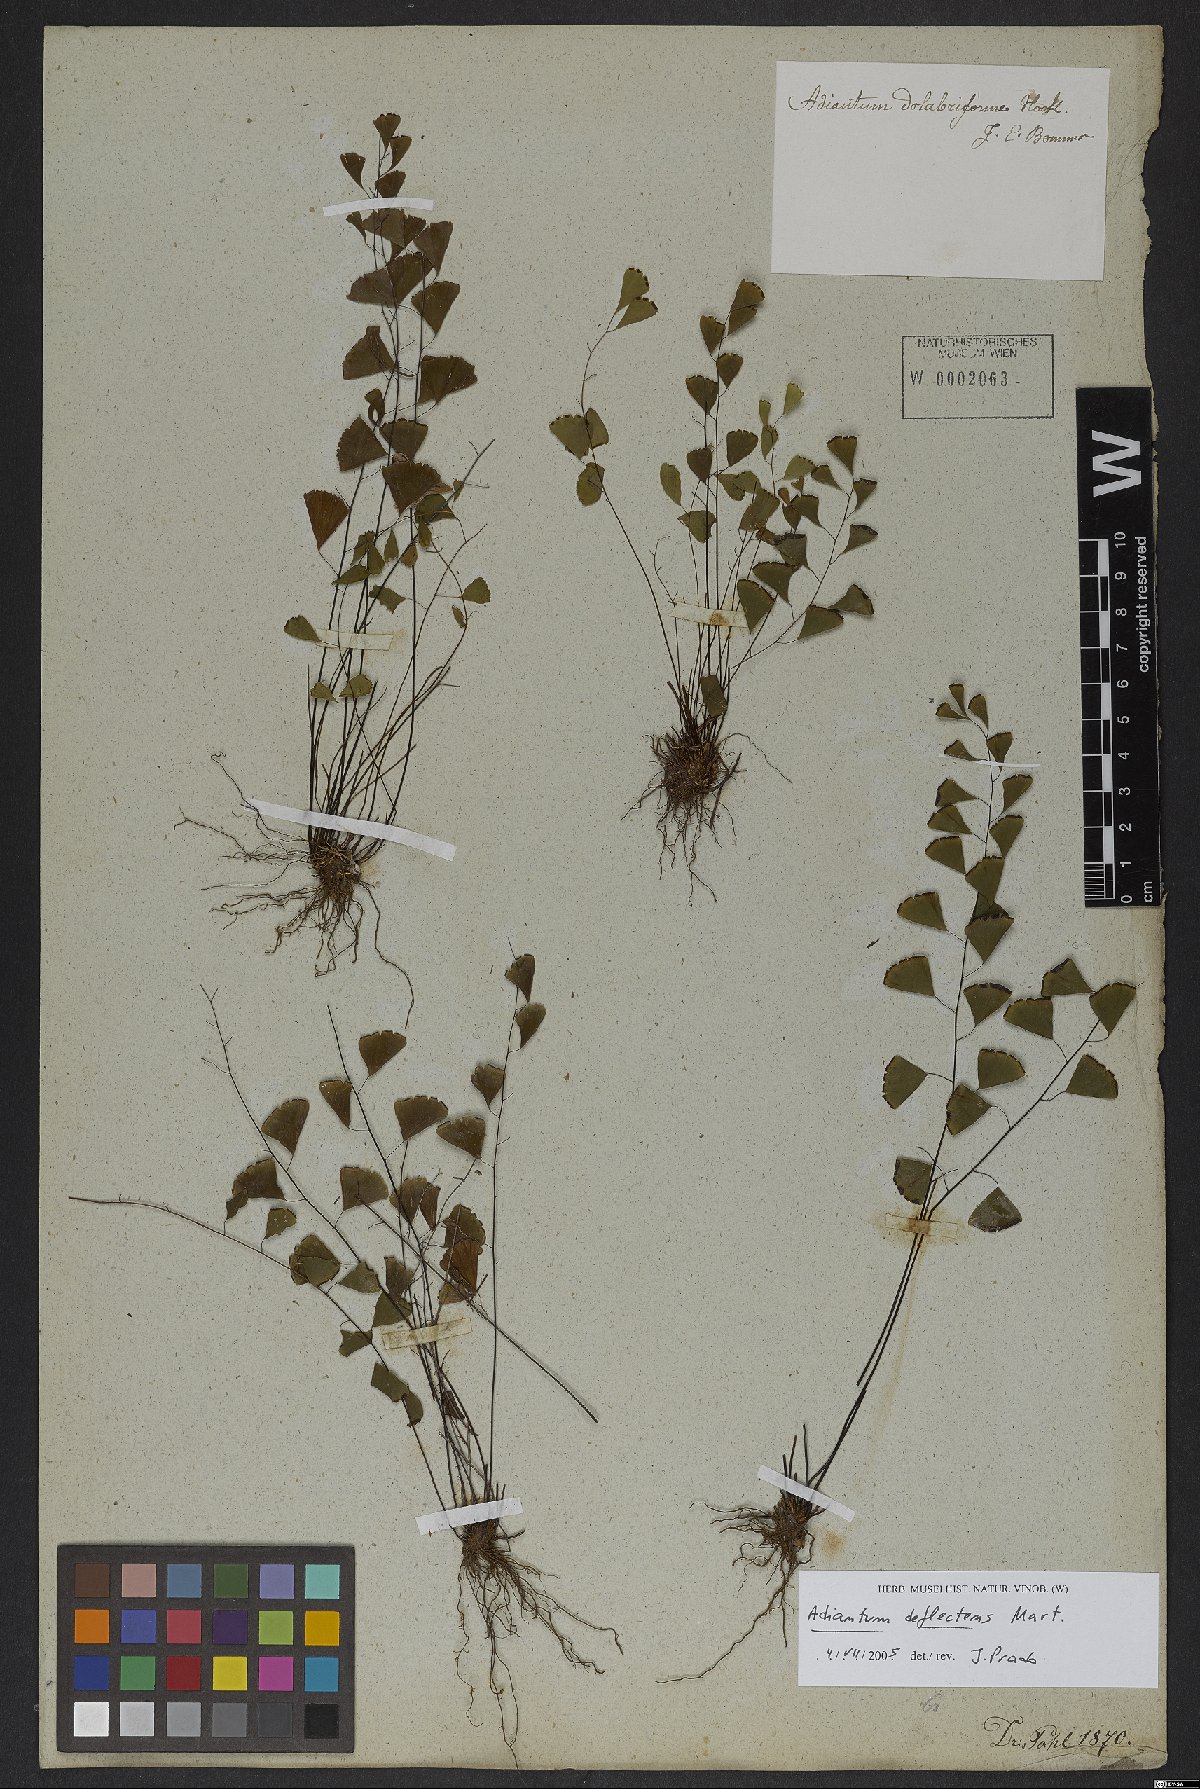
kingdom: Plantae
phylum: Tracheophyta
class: Polypodiopsida
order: Polypodiales
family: Pteridaceae
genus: Adiantum
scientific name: Adiantum deflectens
